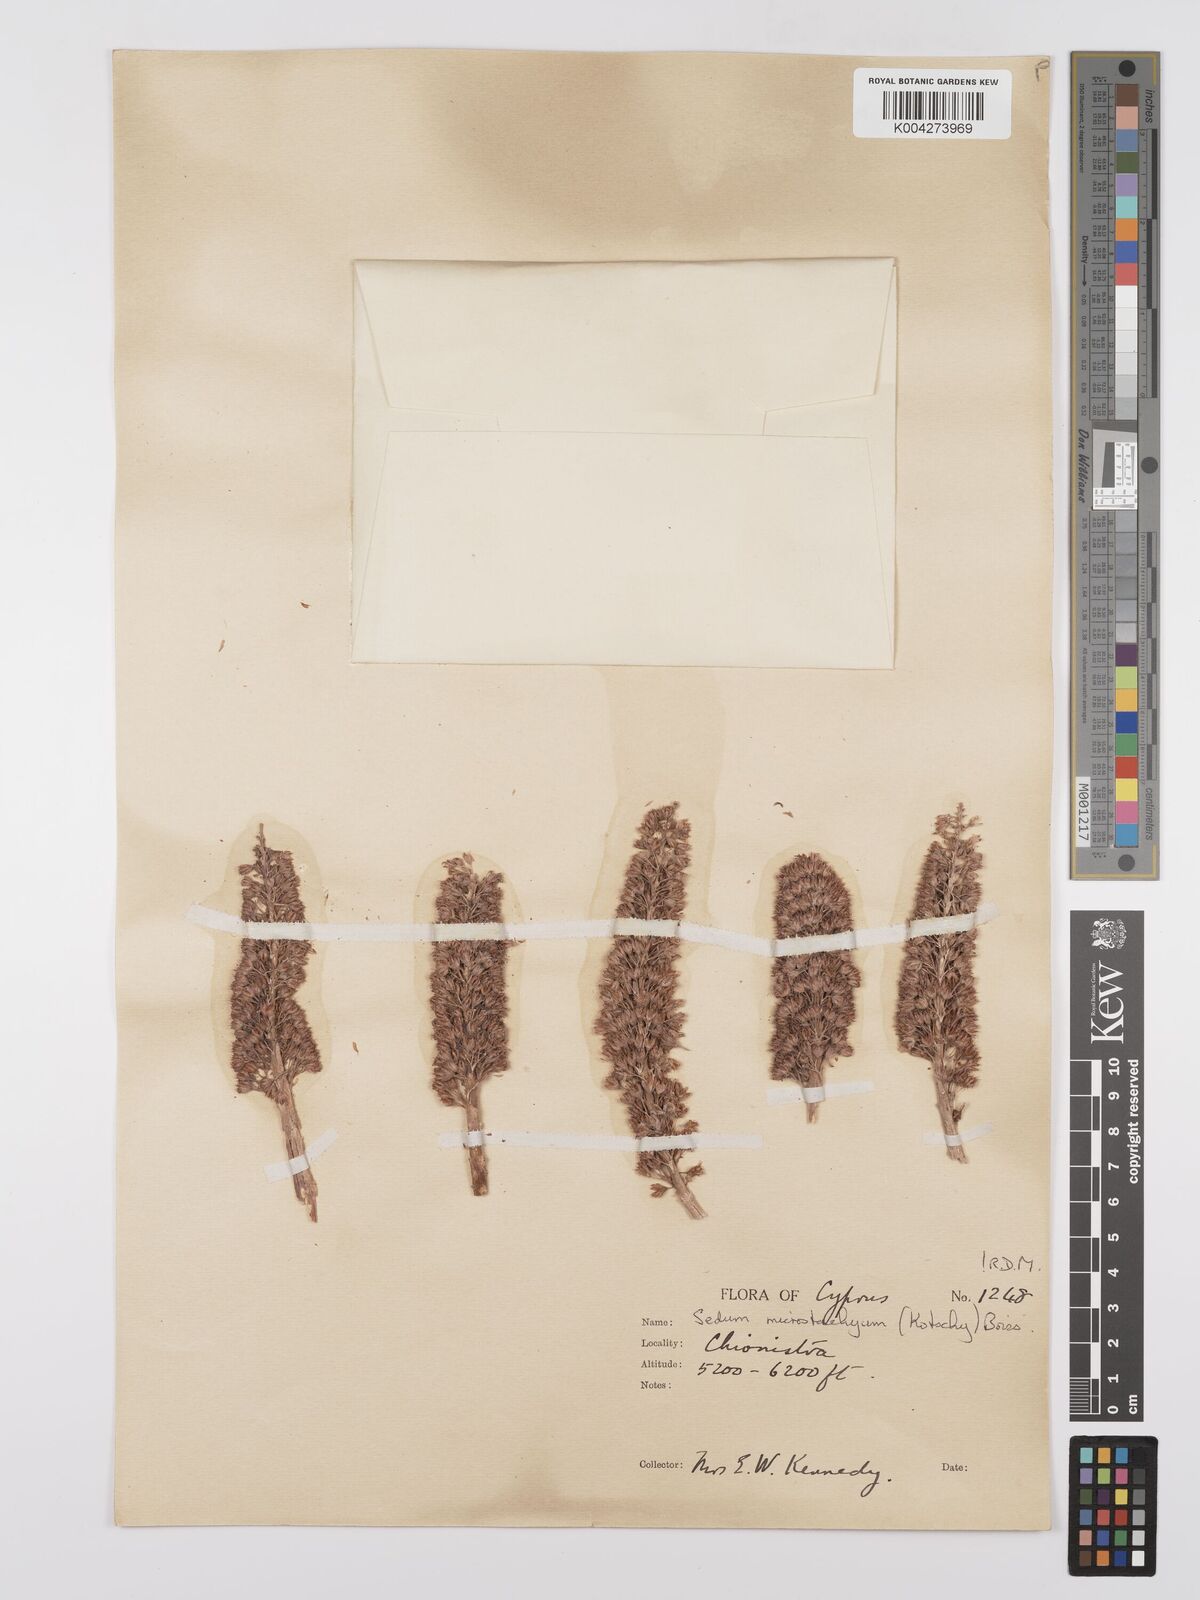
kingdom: Plantae
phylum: Tracheophyta
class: Magnoliopsida
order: Saxifragales
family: Crassulaceae
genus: Sedum
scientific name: Sedum microstachyum
